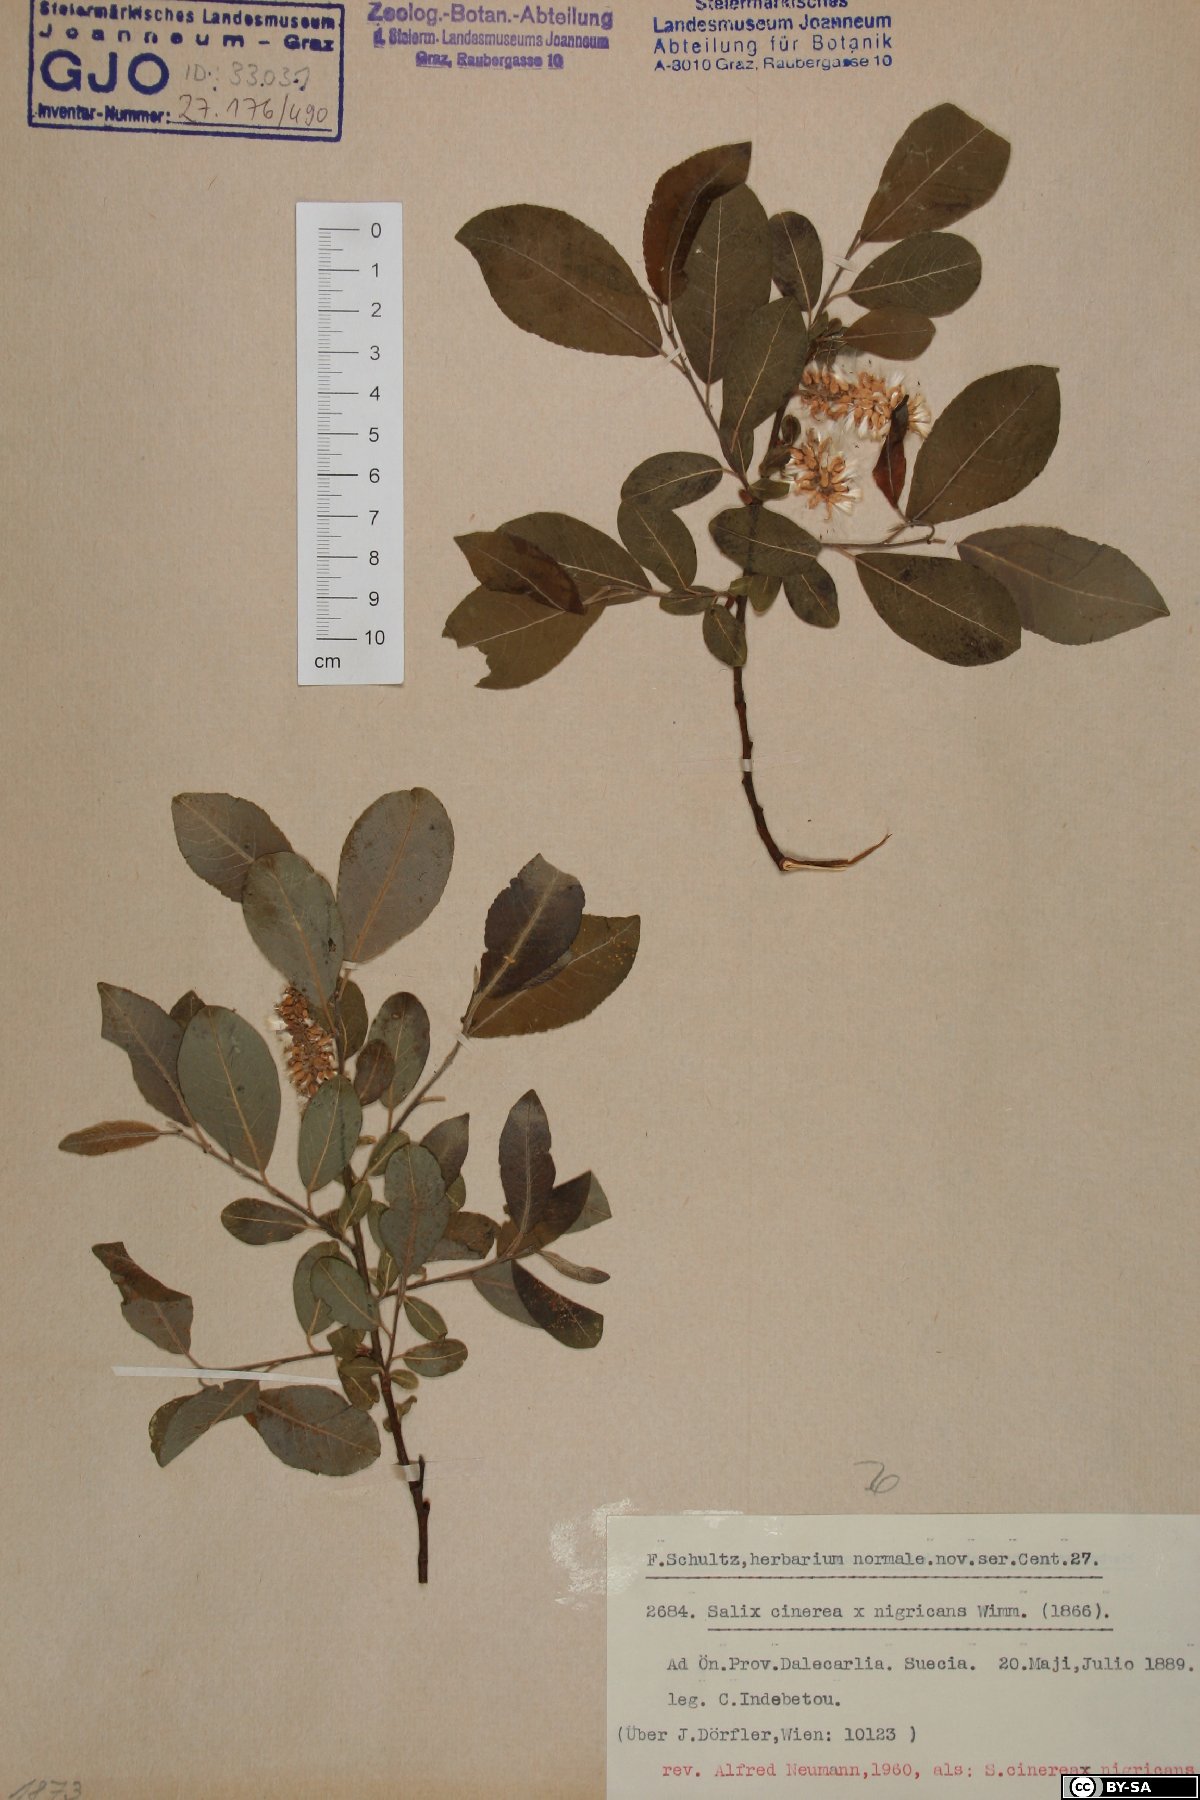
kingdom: Plantae
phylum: Tracheophyta
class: Magnoliopsida
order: Malpighiales
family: Salicaceae
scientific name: Salicaceae
